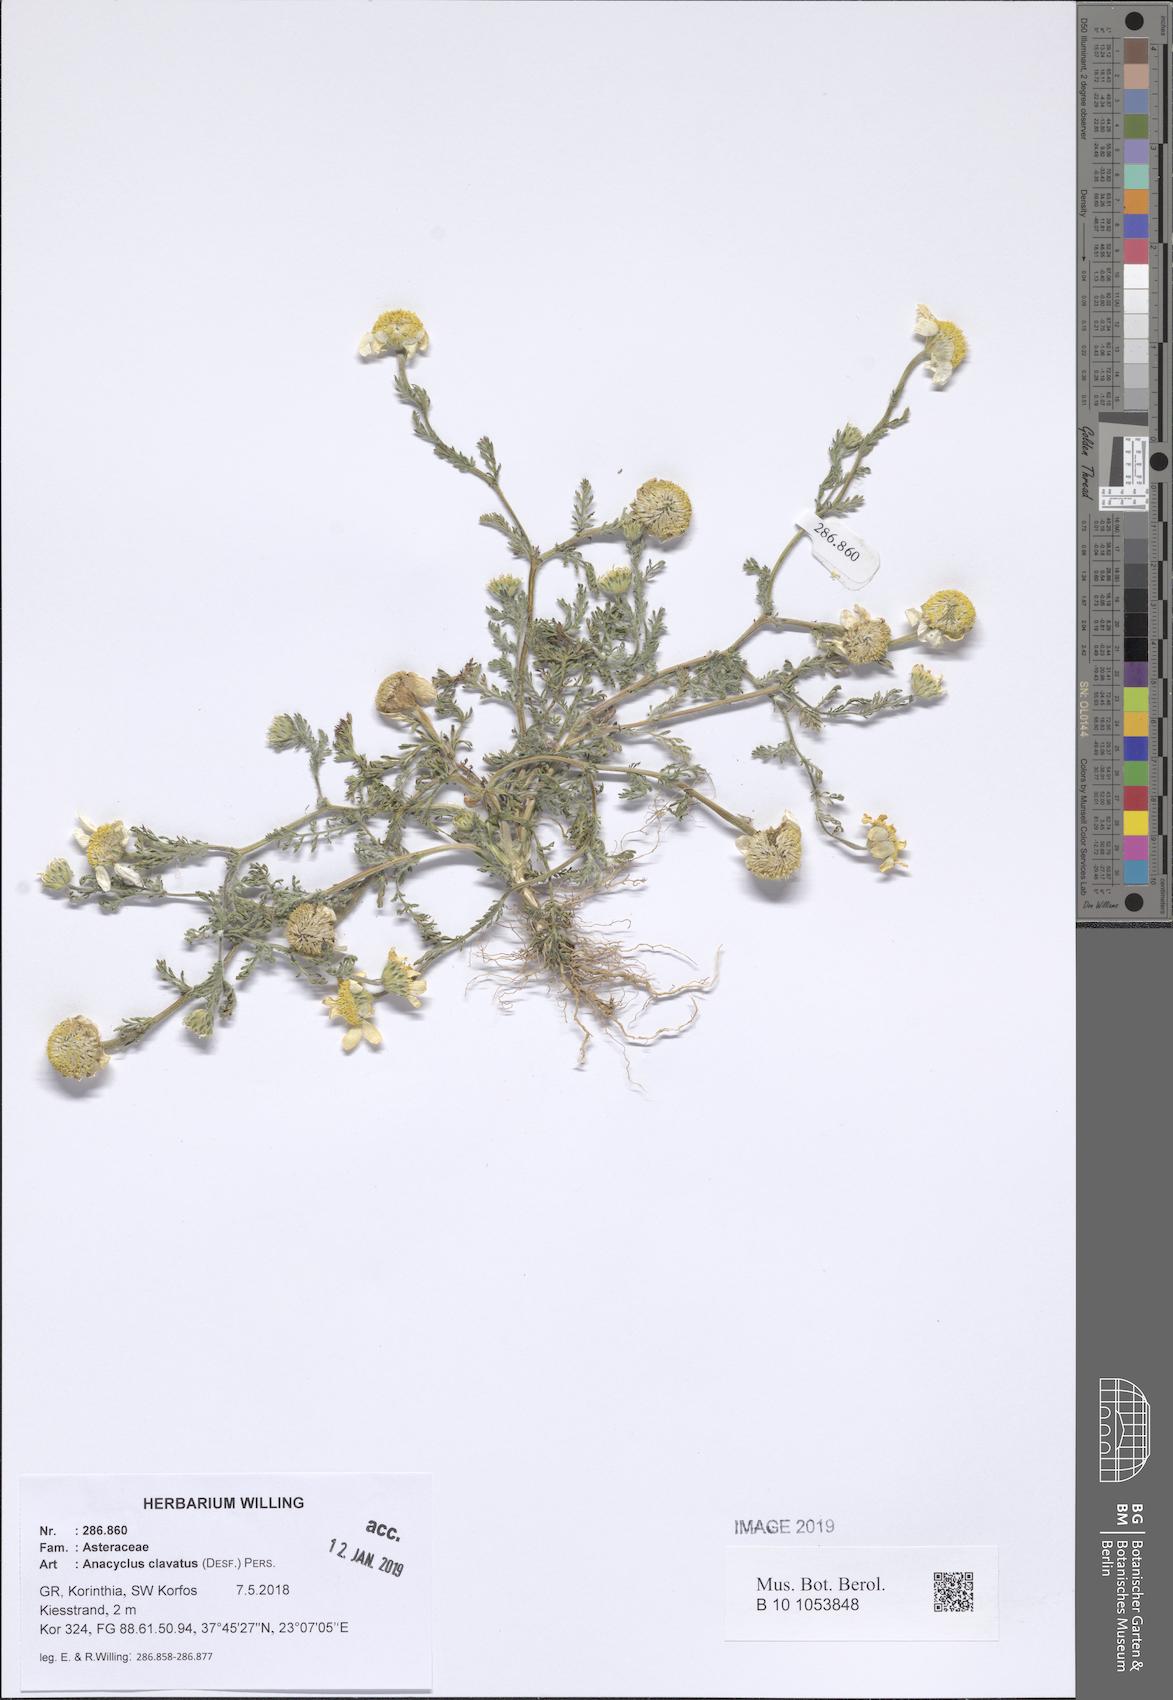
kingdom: Plantae
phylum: Tracheophyta
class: Magnoliopsida
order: Asterales
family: Asteraceae
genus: Anacyclus
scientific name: Anacyclus clavatus
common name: Whitebuttons
